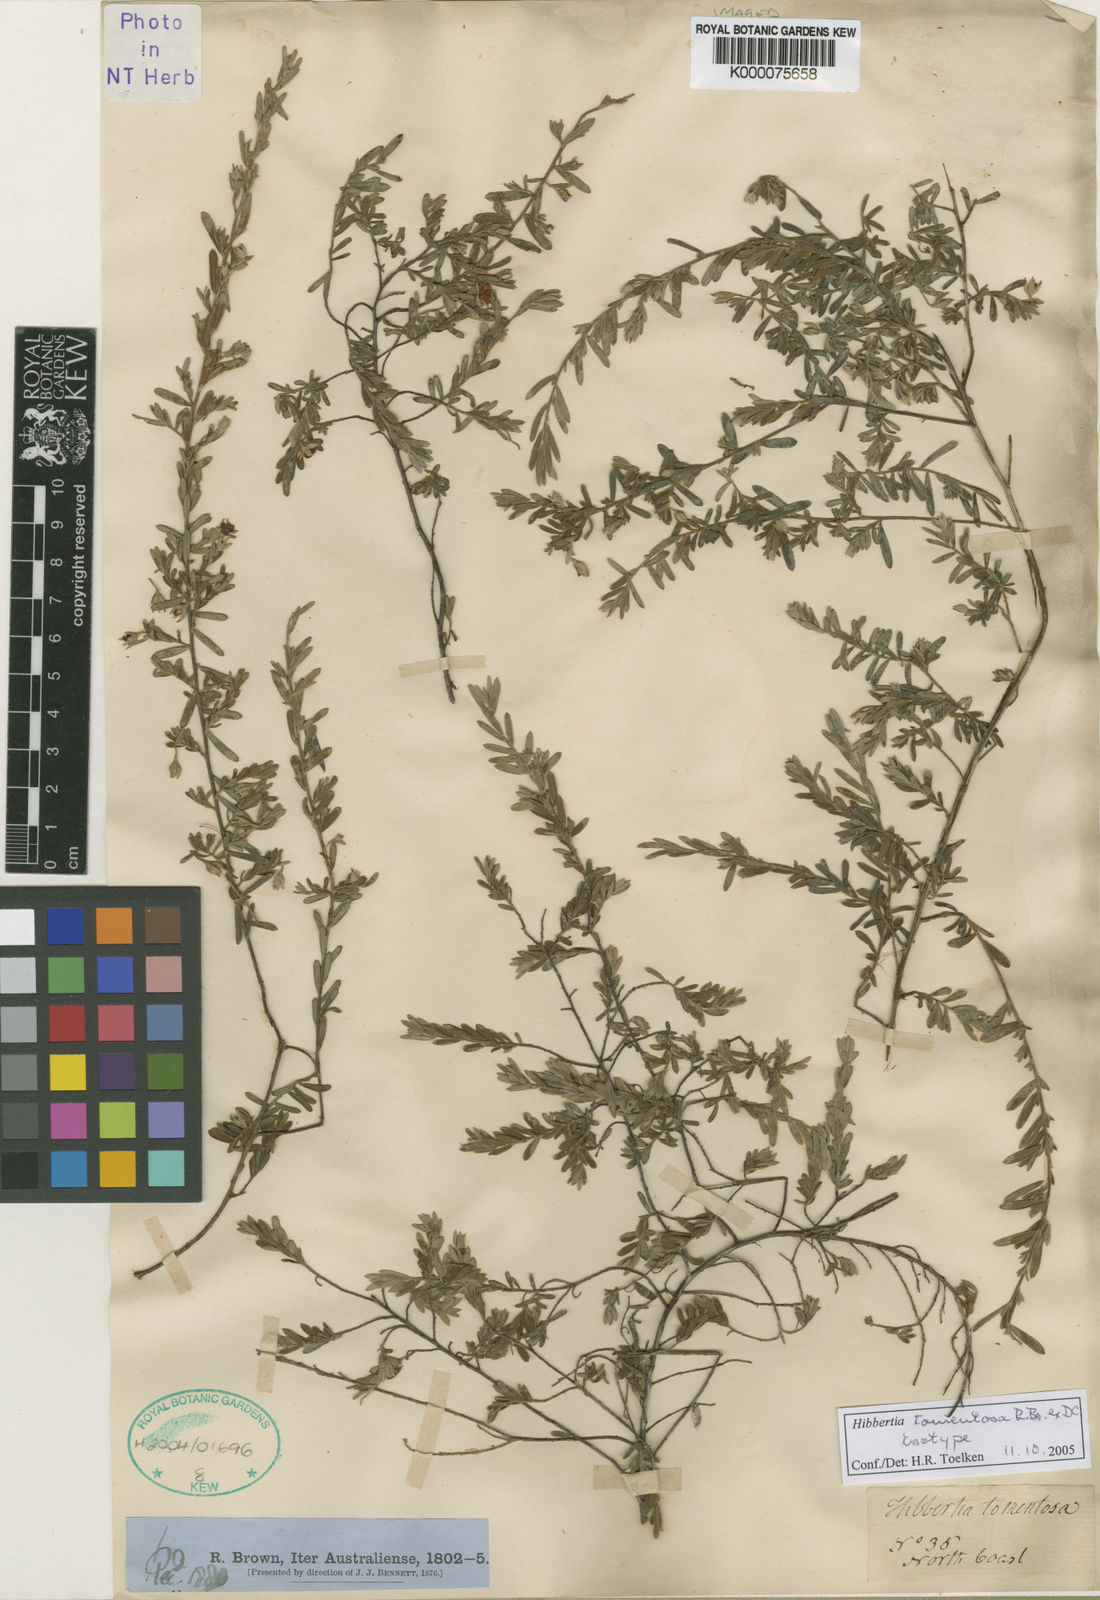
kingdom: Plantae
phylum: Tracheophyta
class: Magnoliopsida
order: Dilleniales
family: Dilleniaceae
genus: Hibbertia
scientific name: Hibbertia tomentosa
